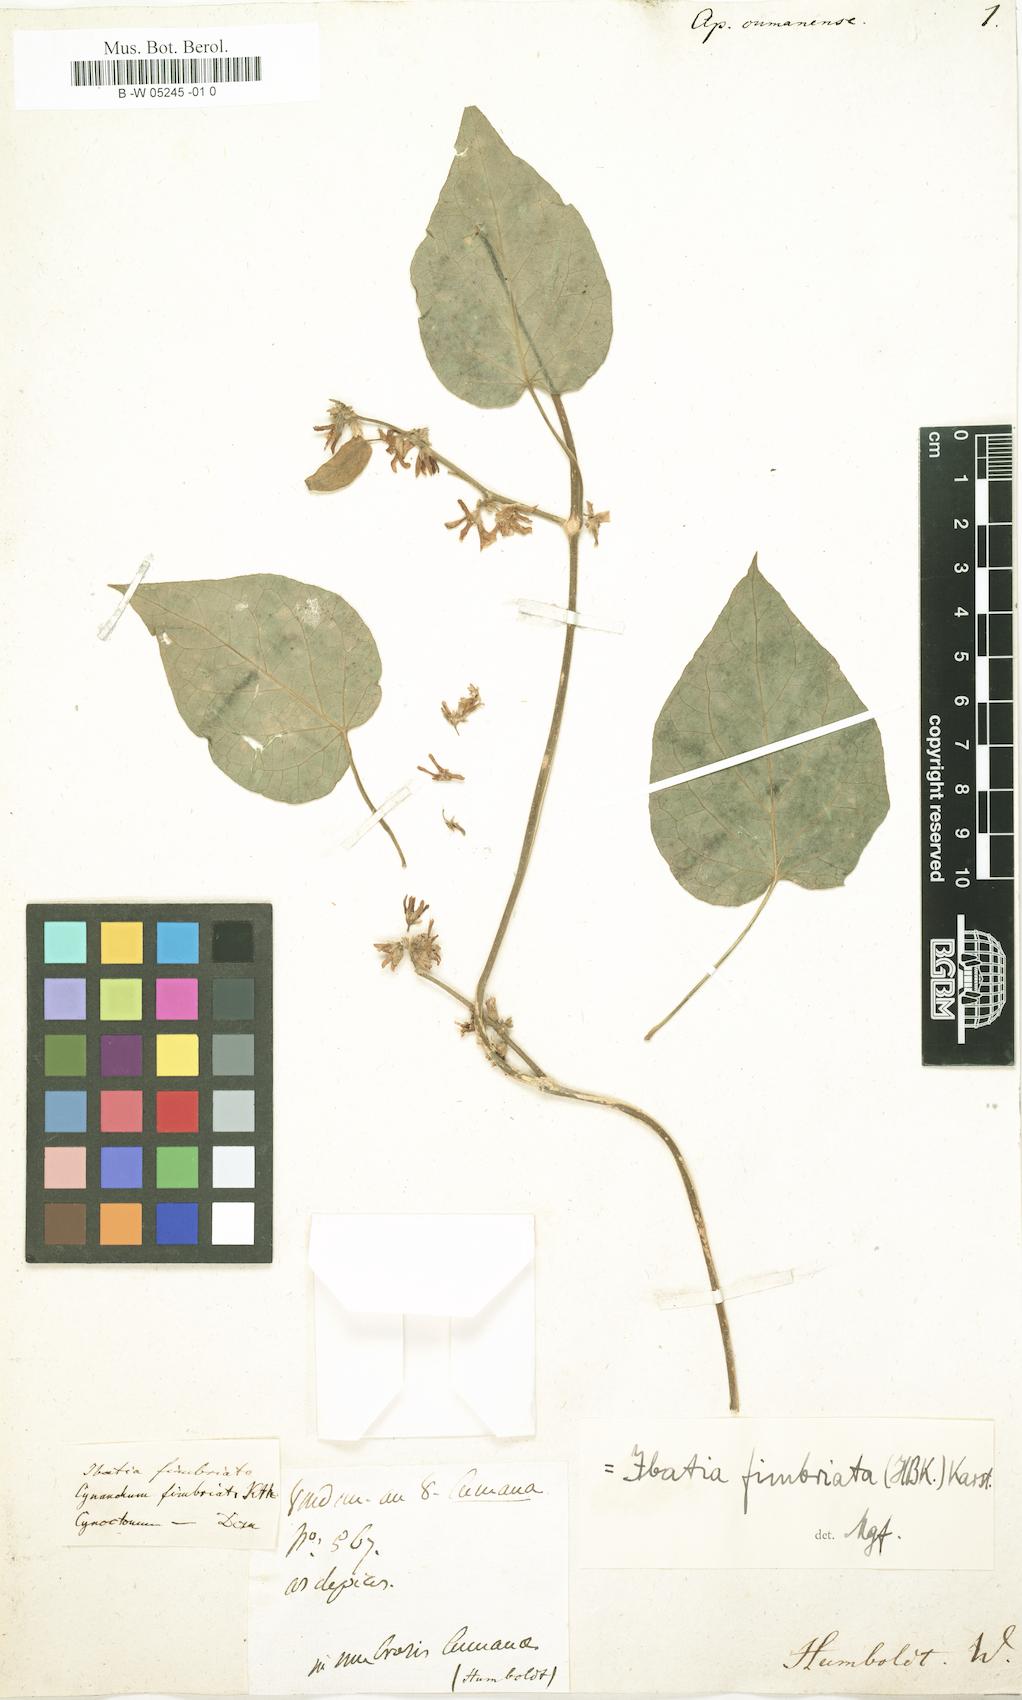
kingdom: Plantae
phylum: Tracheophyta
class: Magnoliopsida
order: Gentianales
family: Apocynaceae
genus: Ibatia
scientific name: Ibatia cumanensis
